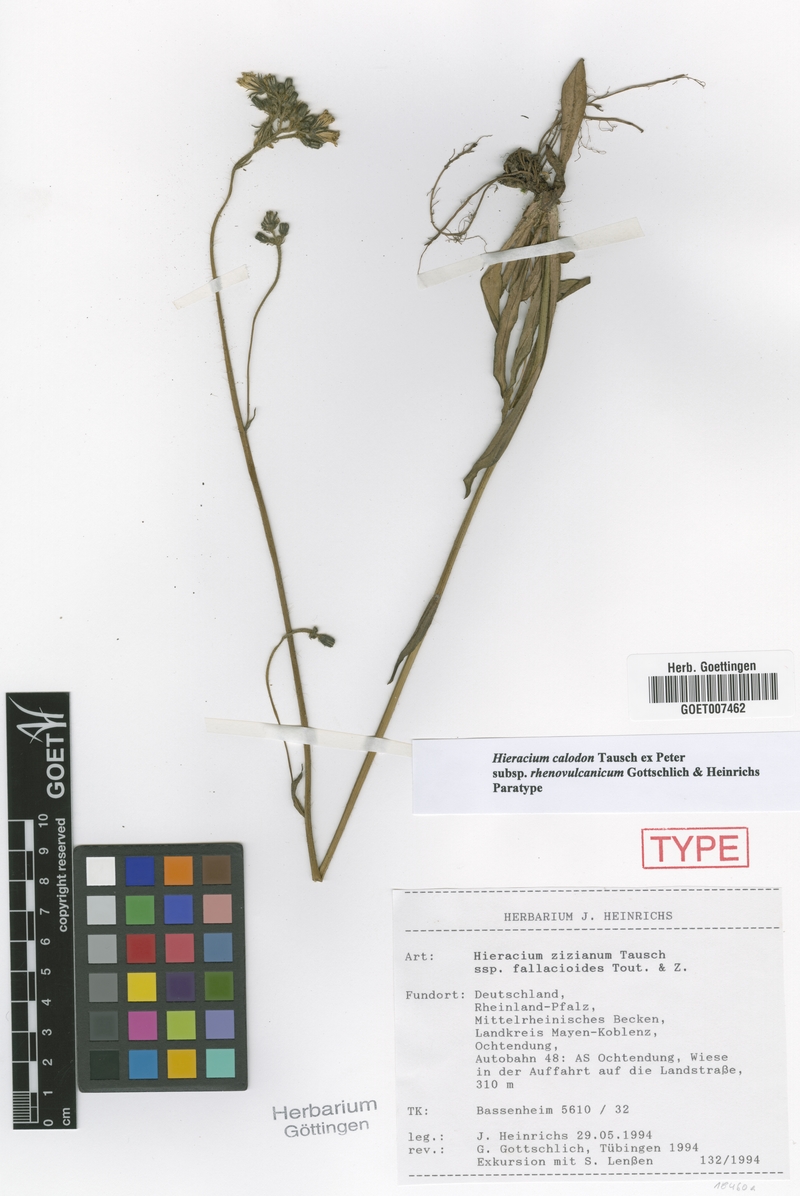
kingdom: Plantae
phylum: Tracheophyta
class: Magnoliopsida
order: Asterales
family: Asteraceae
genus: Pilosella
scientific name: Pilosella calodon
